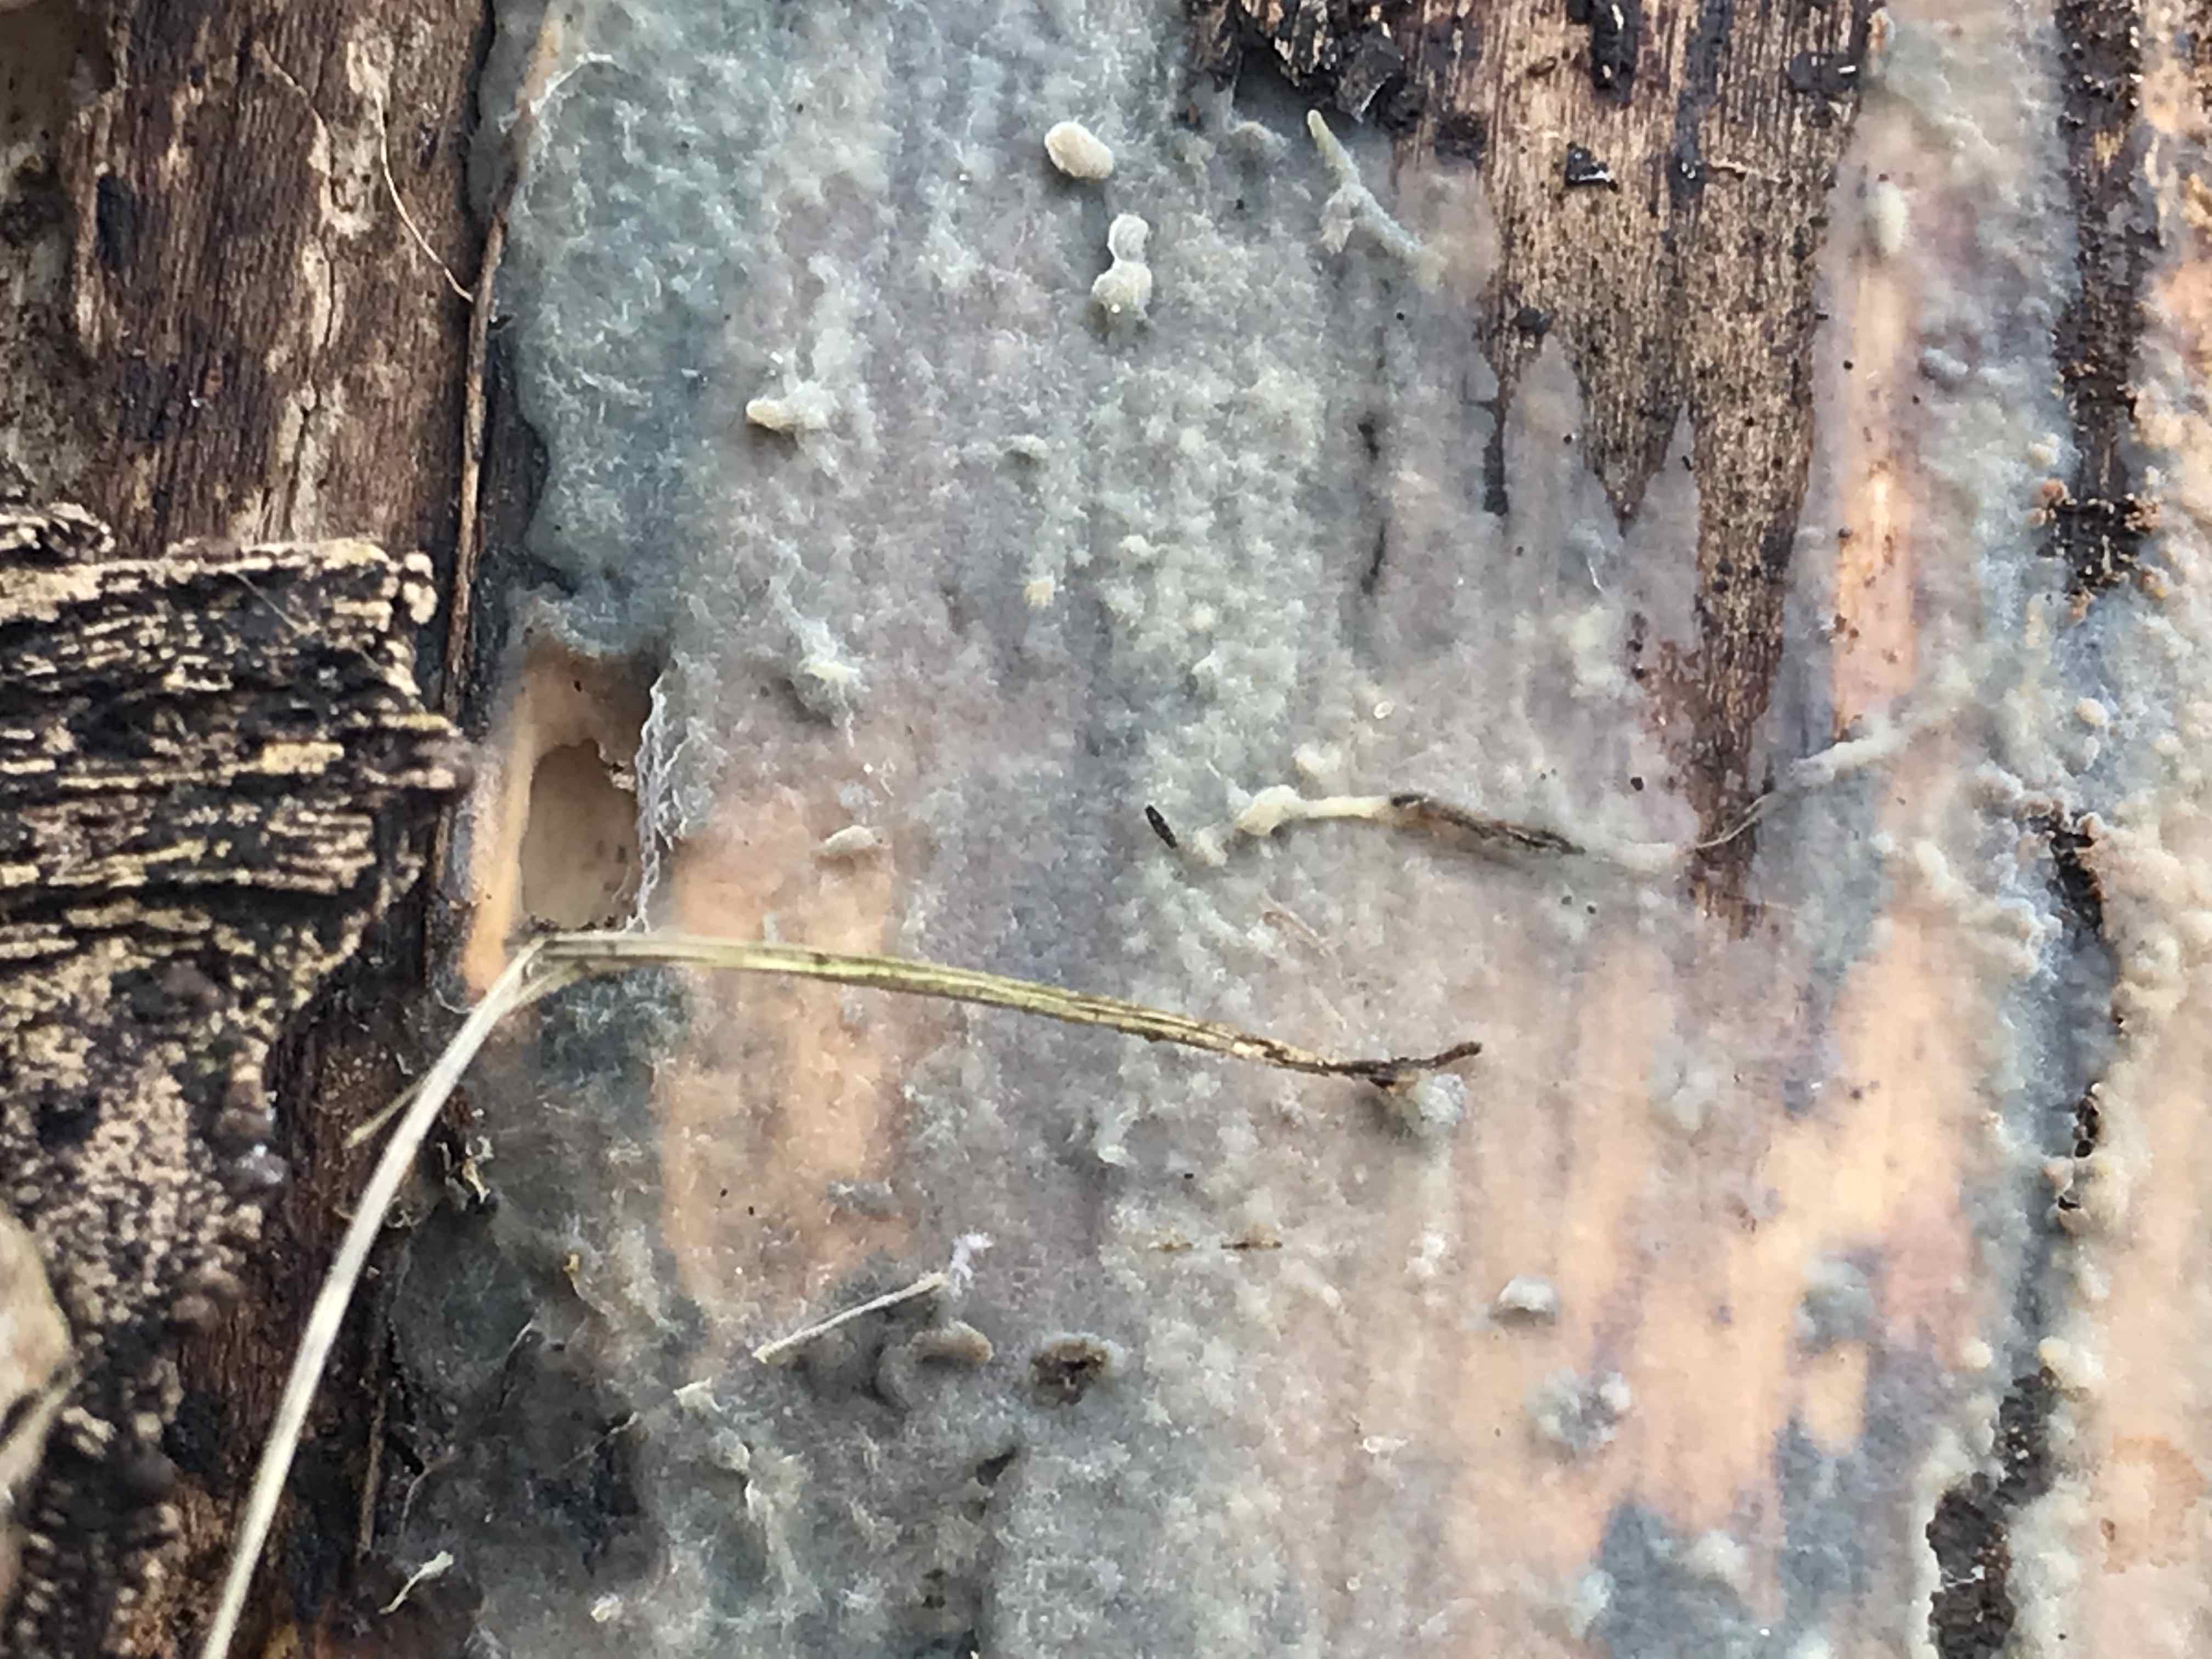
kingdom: Fungi
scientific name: Fungi
